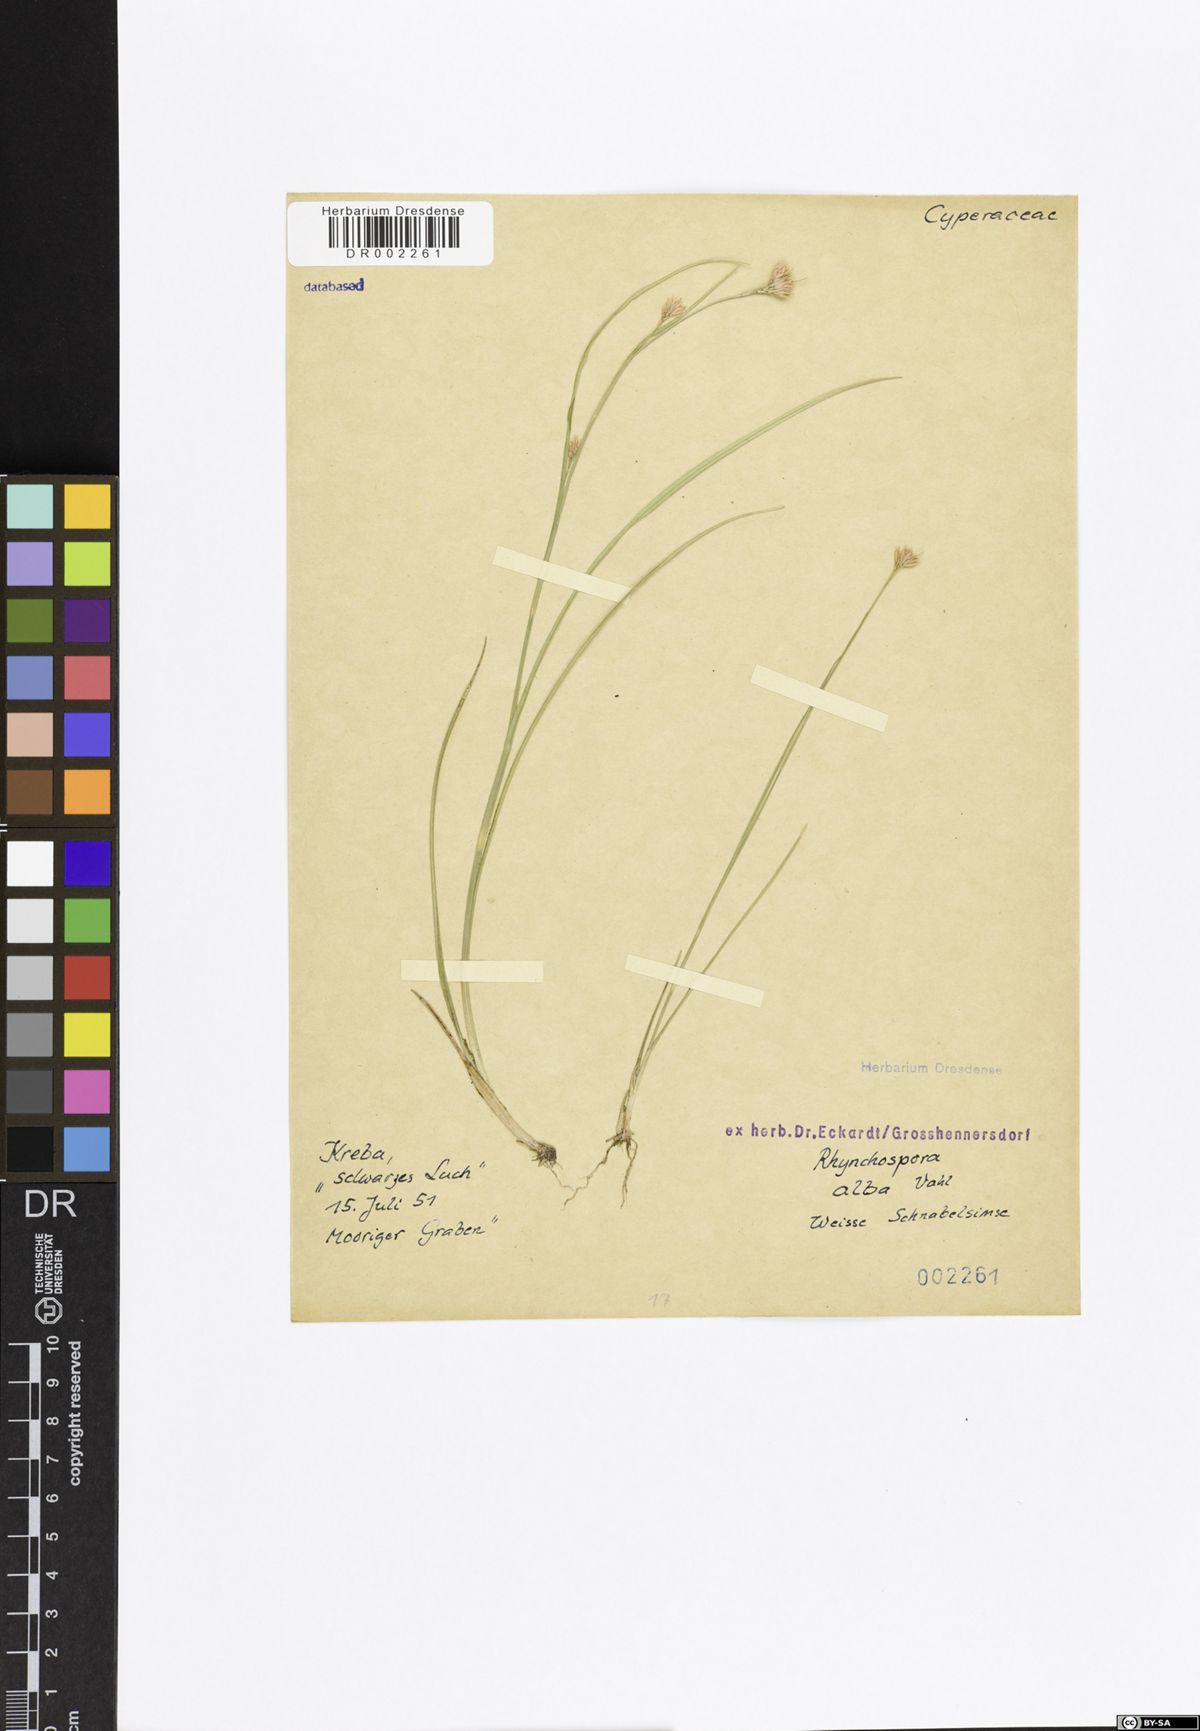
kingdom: Plantae
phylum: Tracheophyta
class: Liliopsida
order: Poales
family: Cyperaceae
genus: Rhynchospora
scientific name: Rhynchospora alba
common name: White beak-sedge
